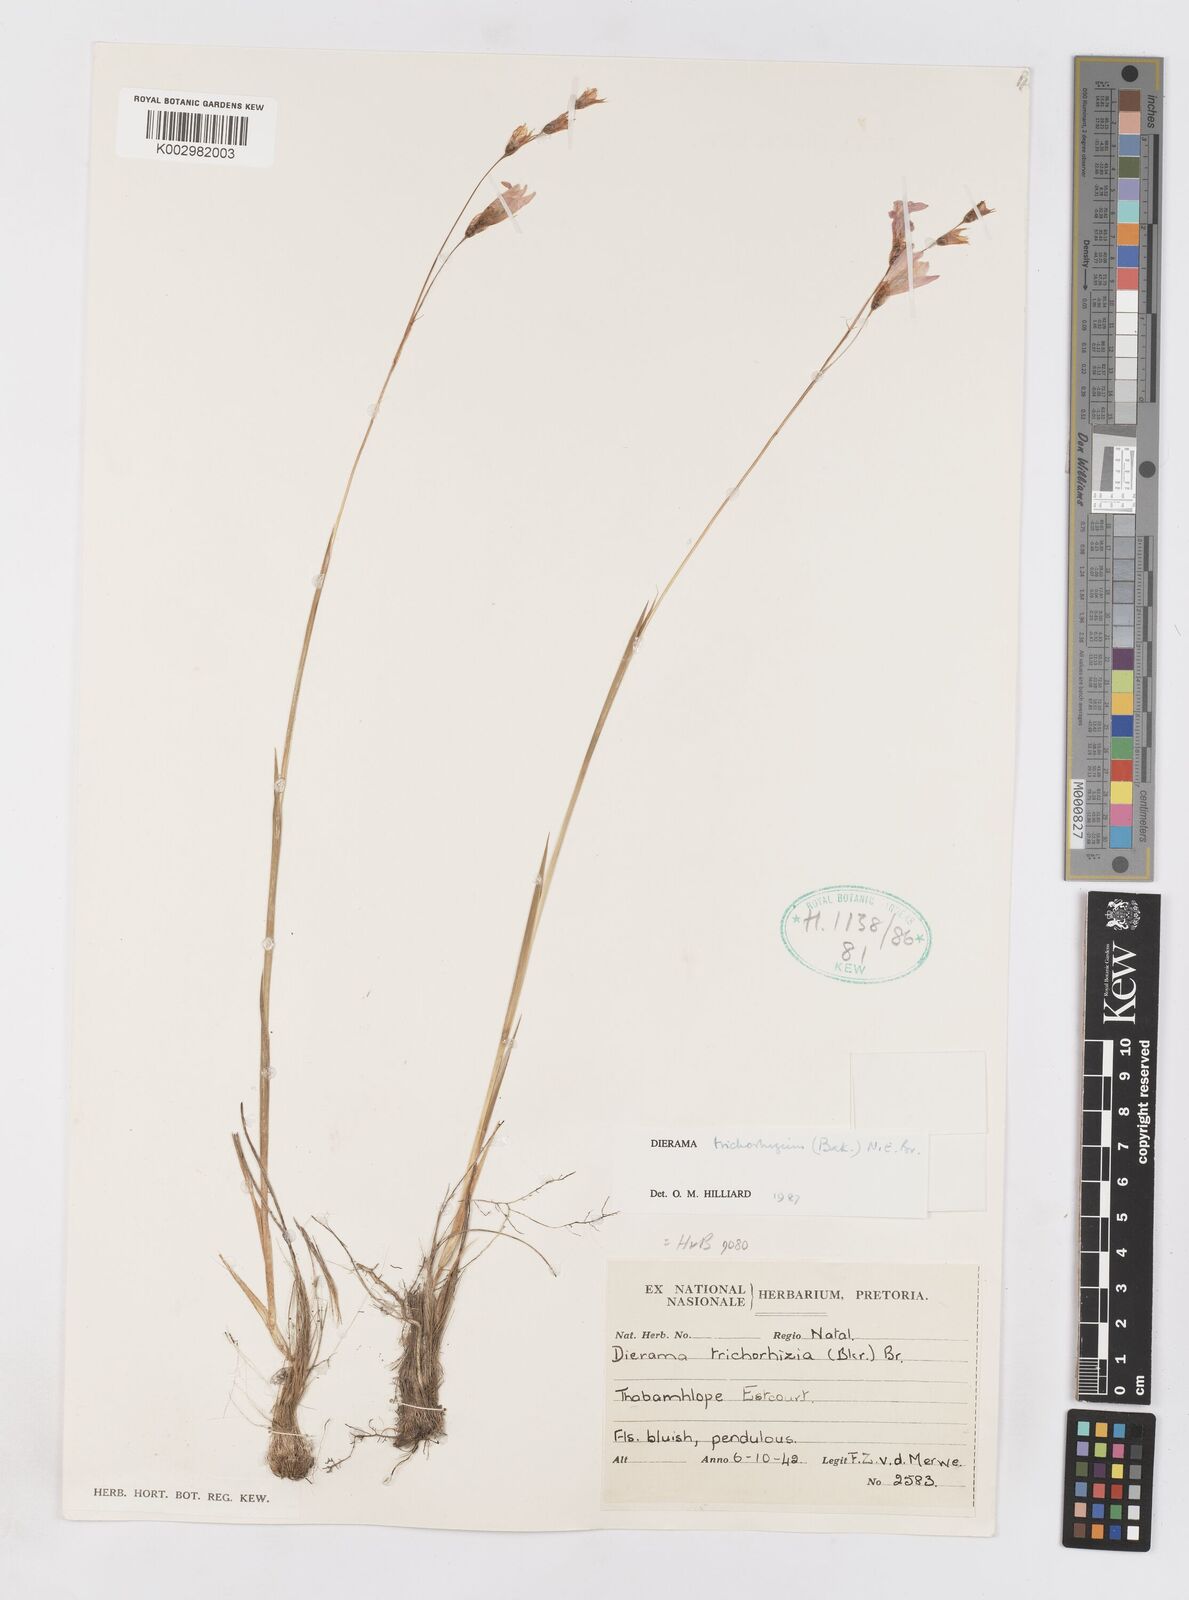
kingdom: Plantae
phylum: Tracheophyta
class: Liliopsida
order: Asparagales
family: Iridaceae
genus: Dierama
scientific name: Dierama trichorhizum
